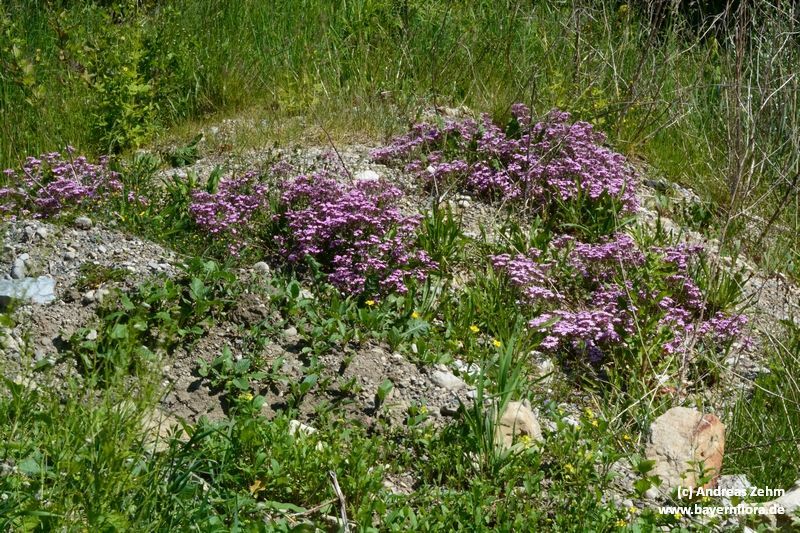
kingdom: Plantae
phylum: Tracheophyta
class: Magnoliopsida
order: Caryophyllales
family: Caryophyllaceae
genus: Saponaria
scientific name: Saponaria ocymoides
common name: Rock soapwort
